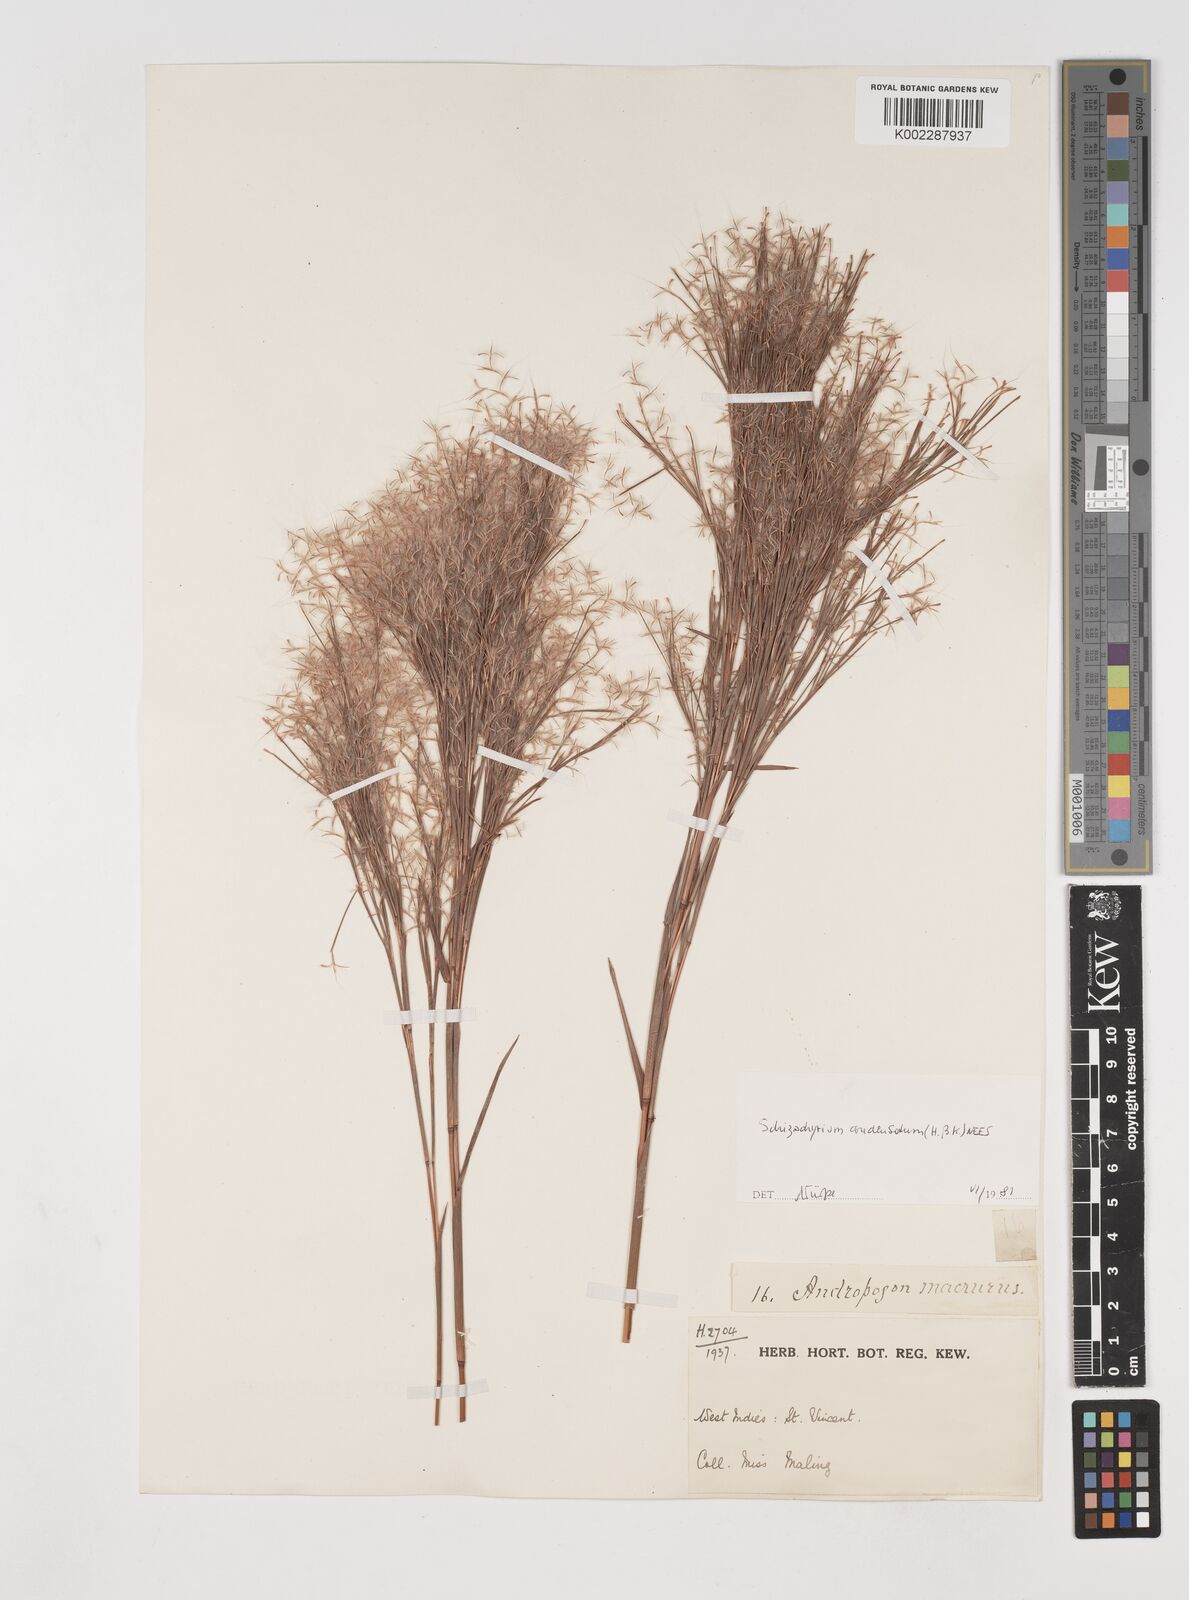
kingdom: Plantae
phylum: Tracheophyta
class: Liliopsida
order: Poales
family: Poaceae
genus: Schizachyrium
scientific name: Schizachyrium condensatum
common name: Bush beardgrass
